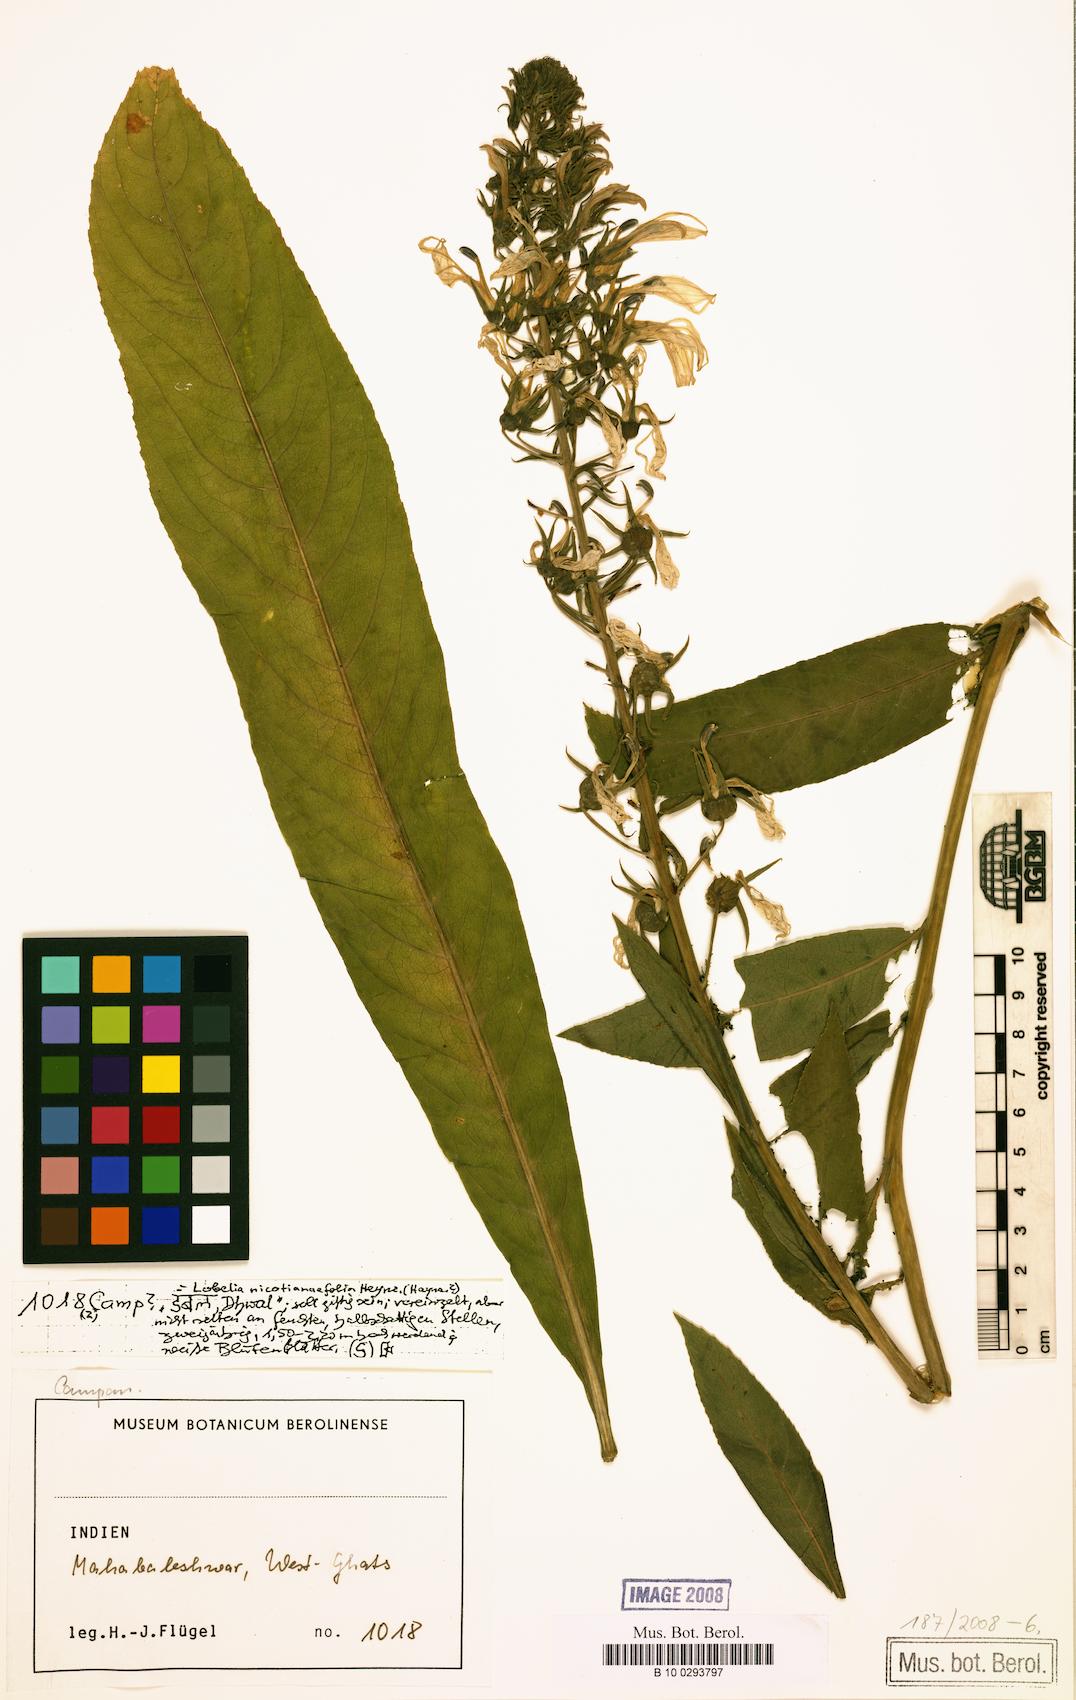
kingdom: Plantae
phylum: Tracheophyta
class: Magnoliopsida
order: Asterales
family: Campanulaceae
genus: Lobelia
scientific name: Lobelia nicotianifolia
